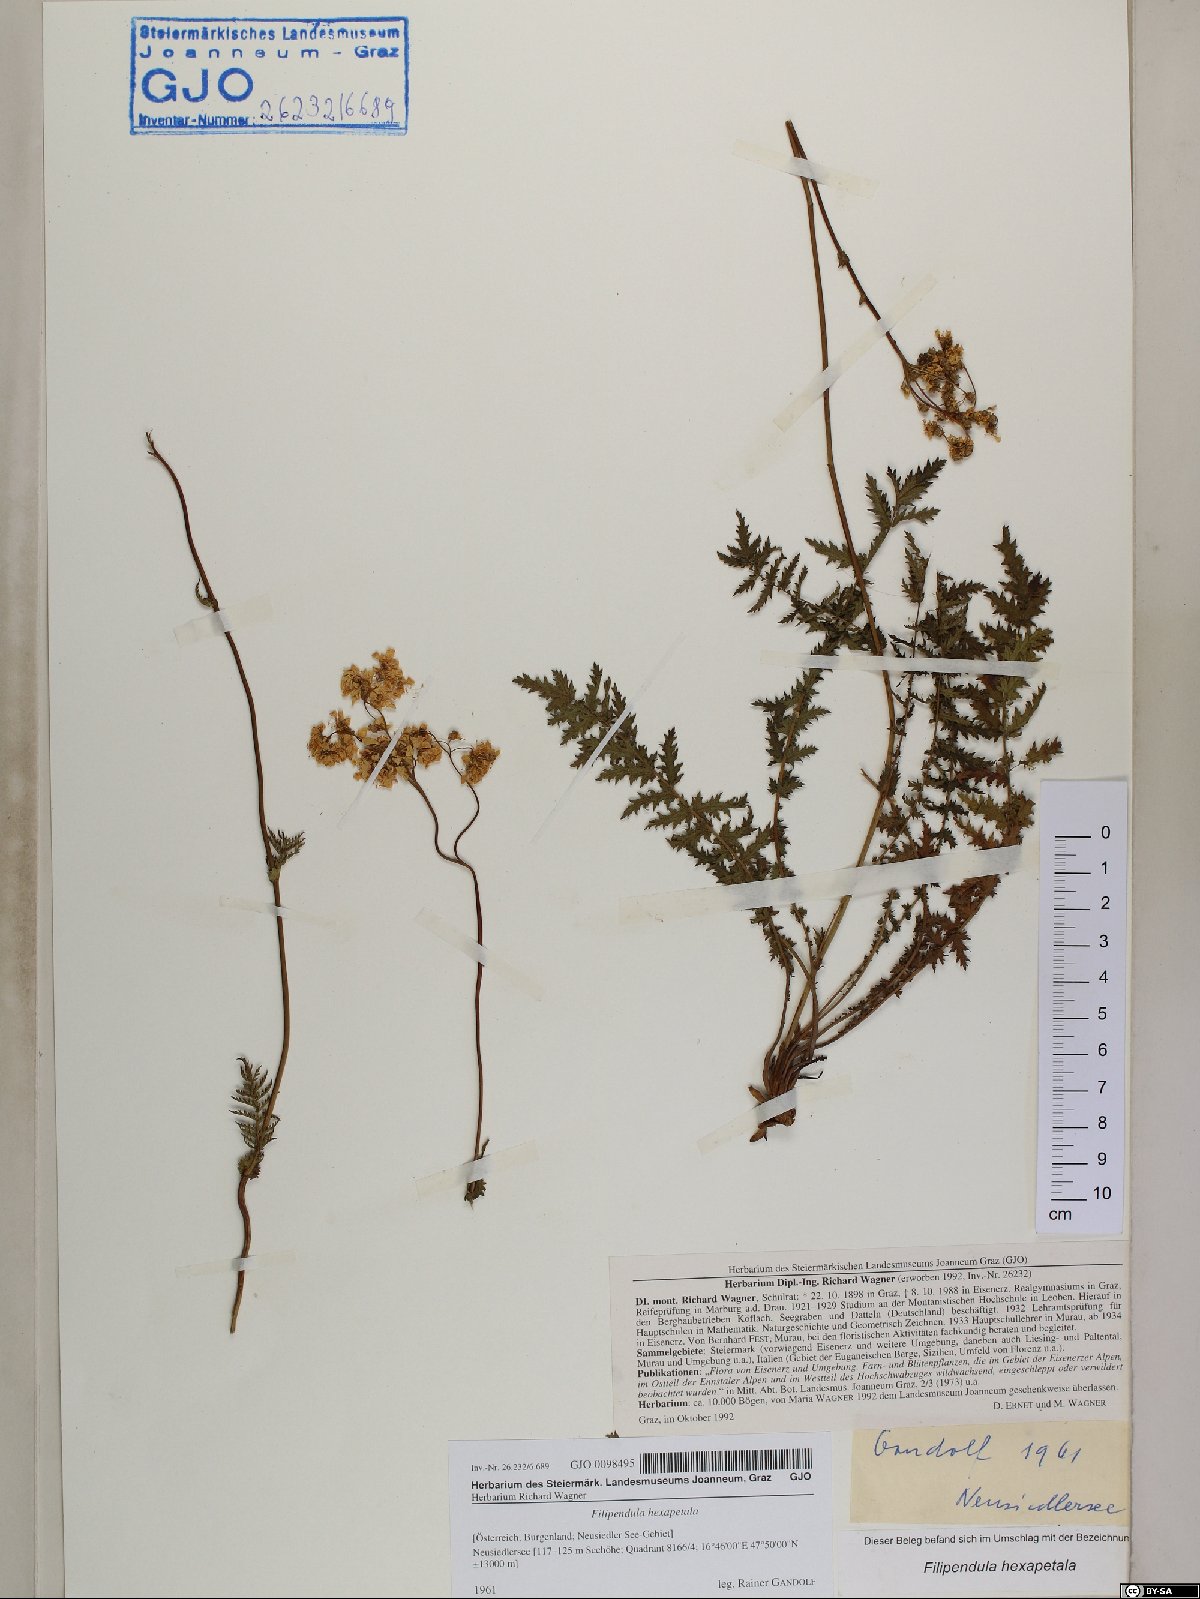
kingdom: Plantae
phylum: Tracheophyta
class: Magnoliopsida
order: Rosales
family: Rosaceae
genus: Filipendula
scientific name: Filipendula vulgaris
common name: Dropwort
